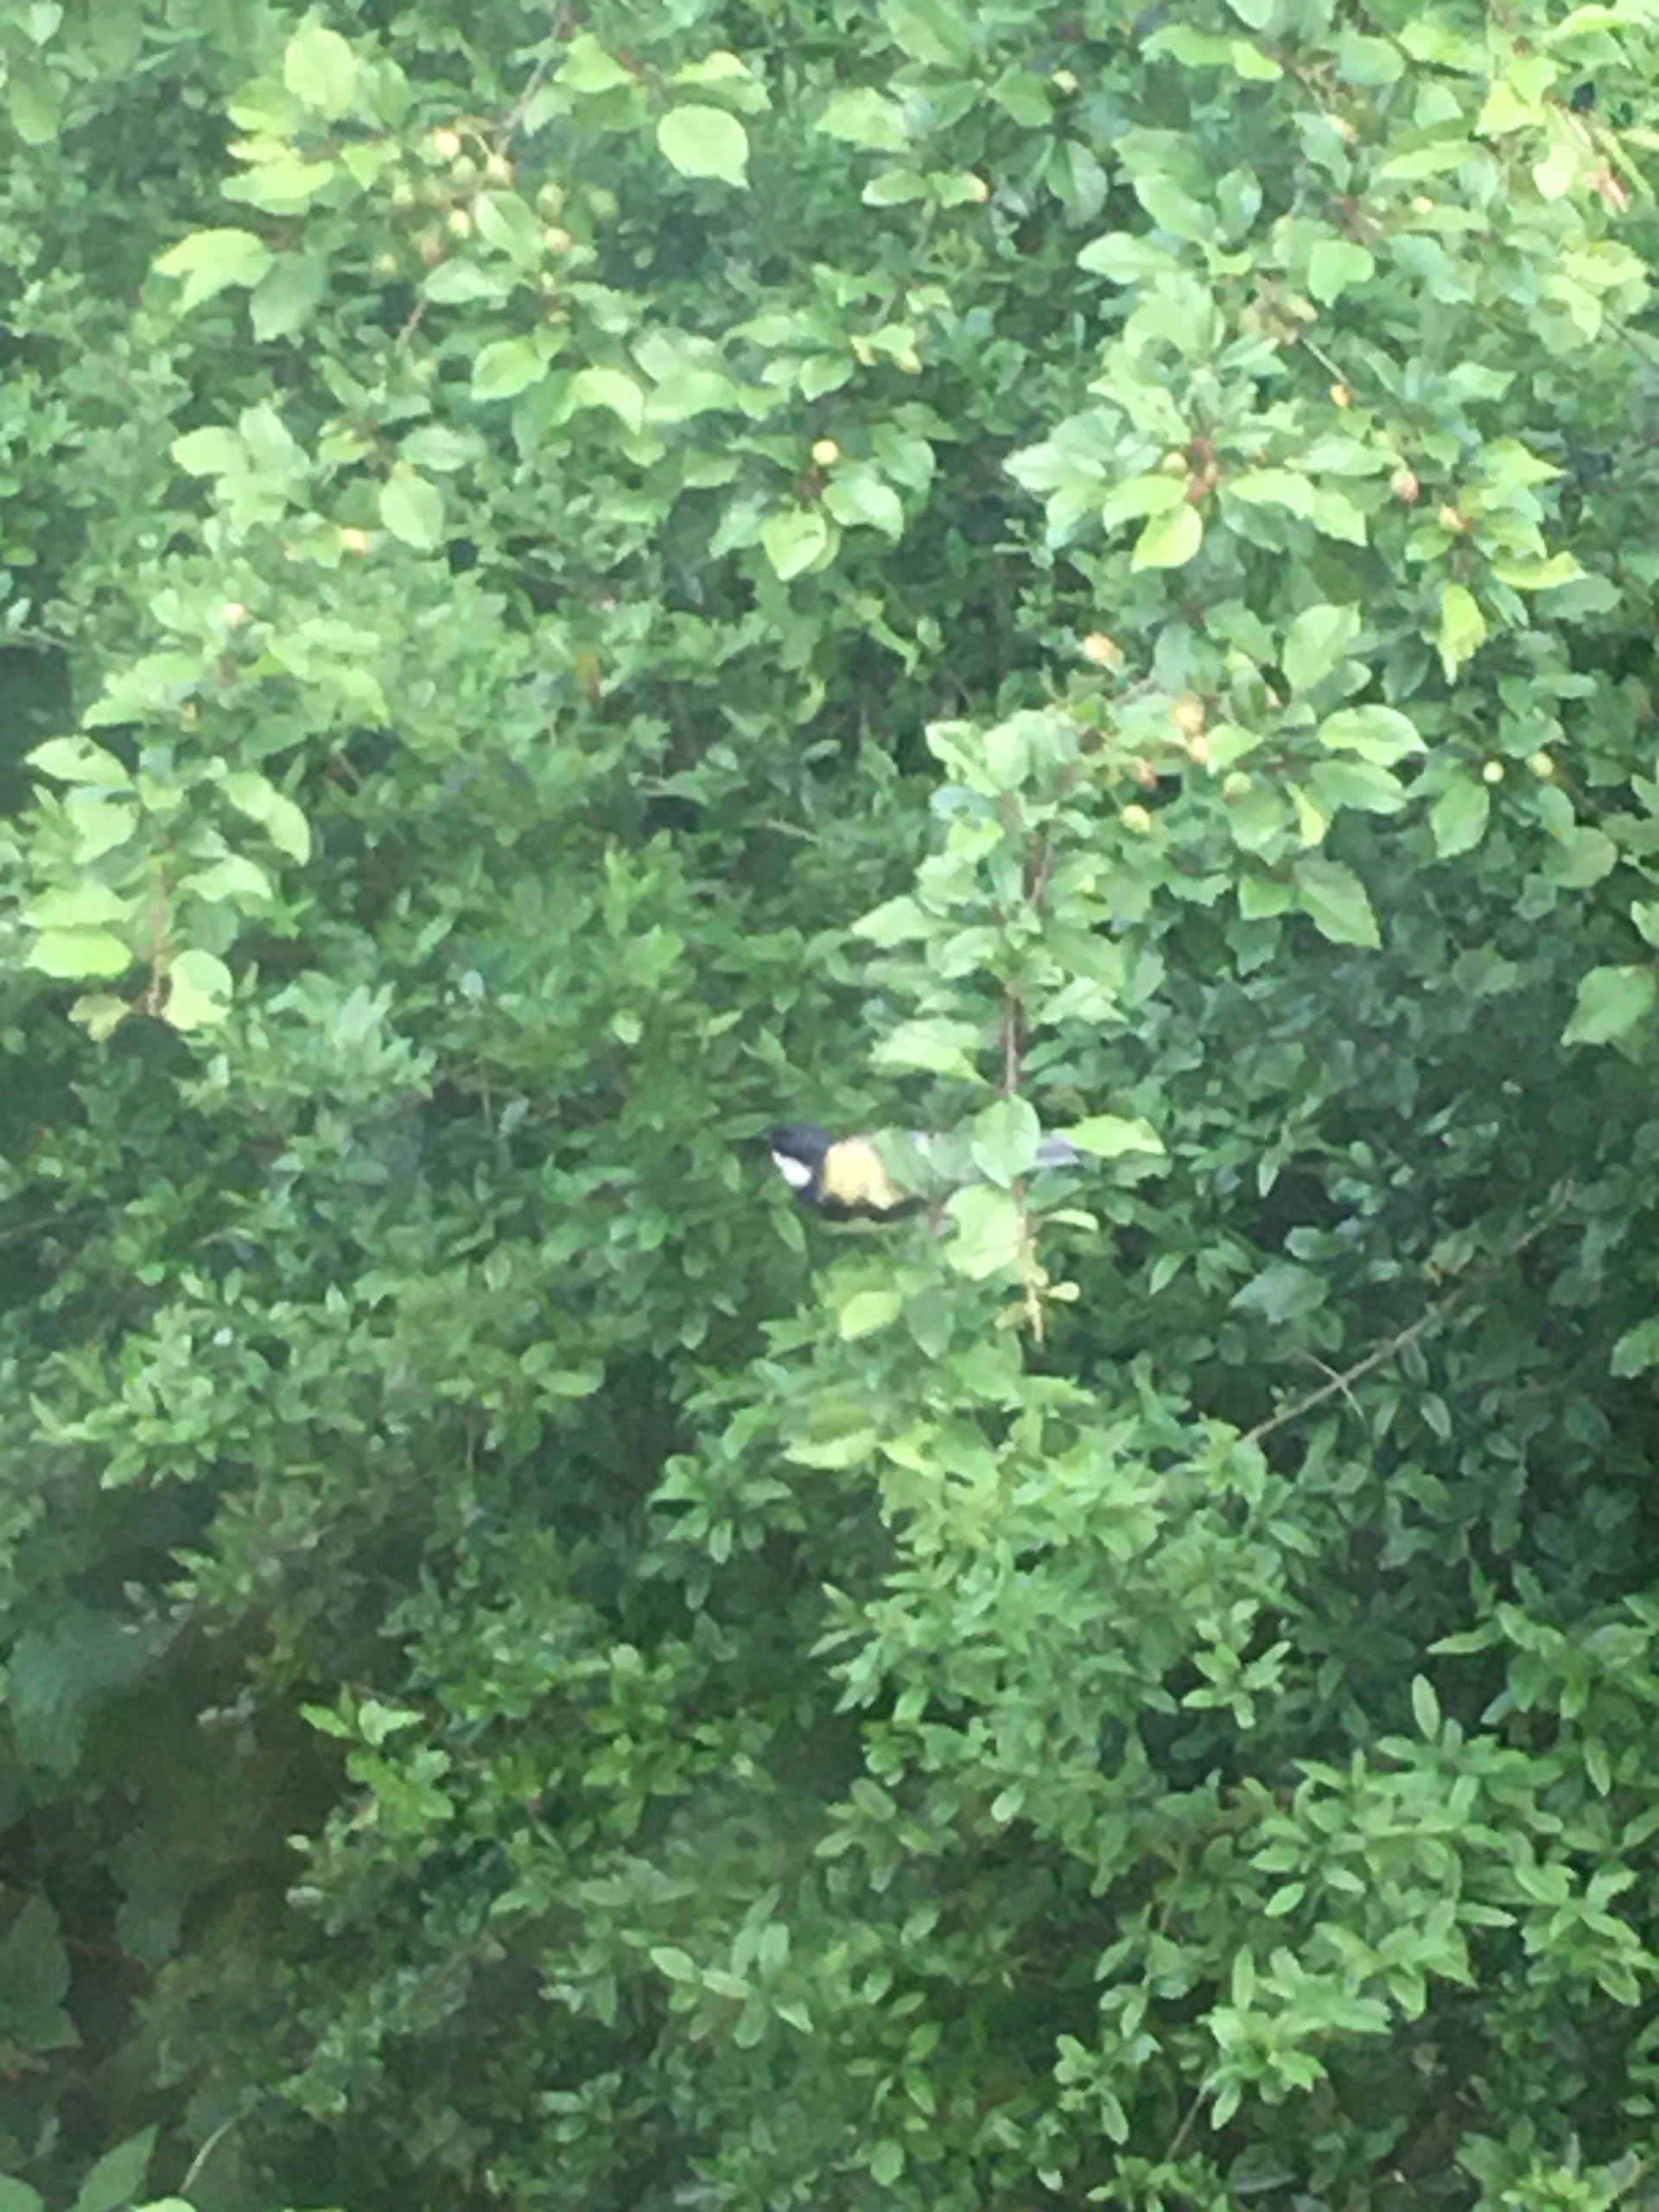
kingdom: Animalia
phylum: Chordata
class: Aves
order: Passeriformes
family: Paridae
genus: Parus
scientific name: Parus major
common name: Musvit
